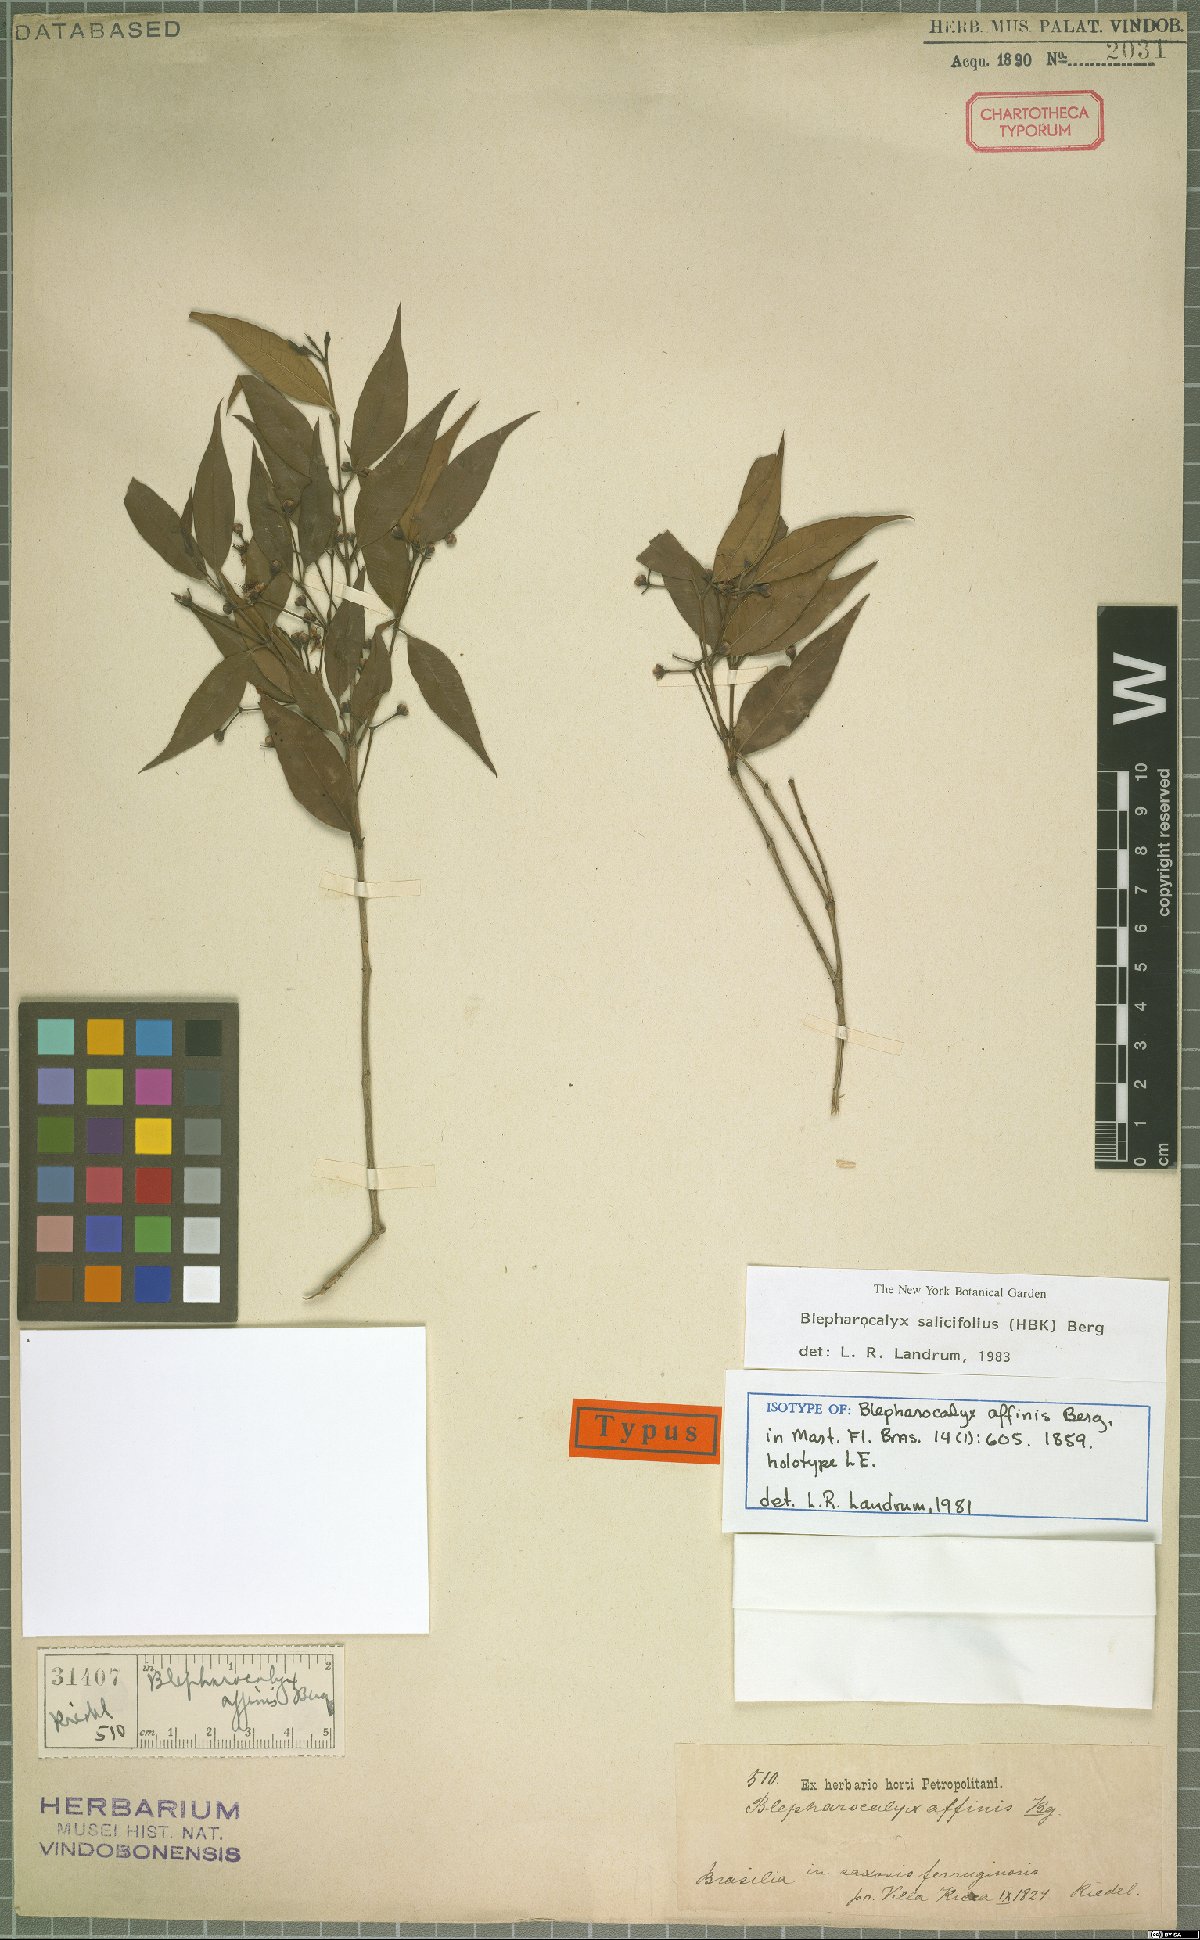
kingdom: Plantae
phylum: Tracheophyta
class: Magnoliopsida
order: Myrtales
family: Myrtaceae
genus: Blepharocalyx
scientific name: Blepharocalyx salicifolius
